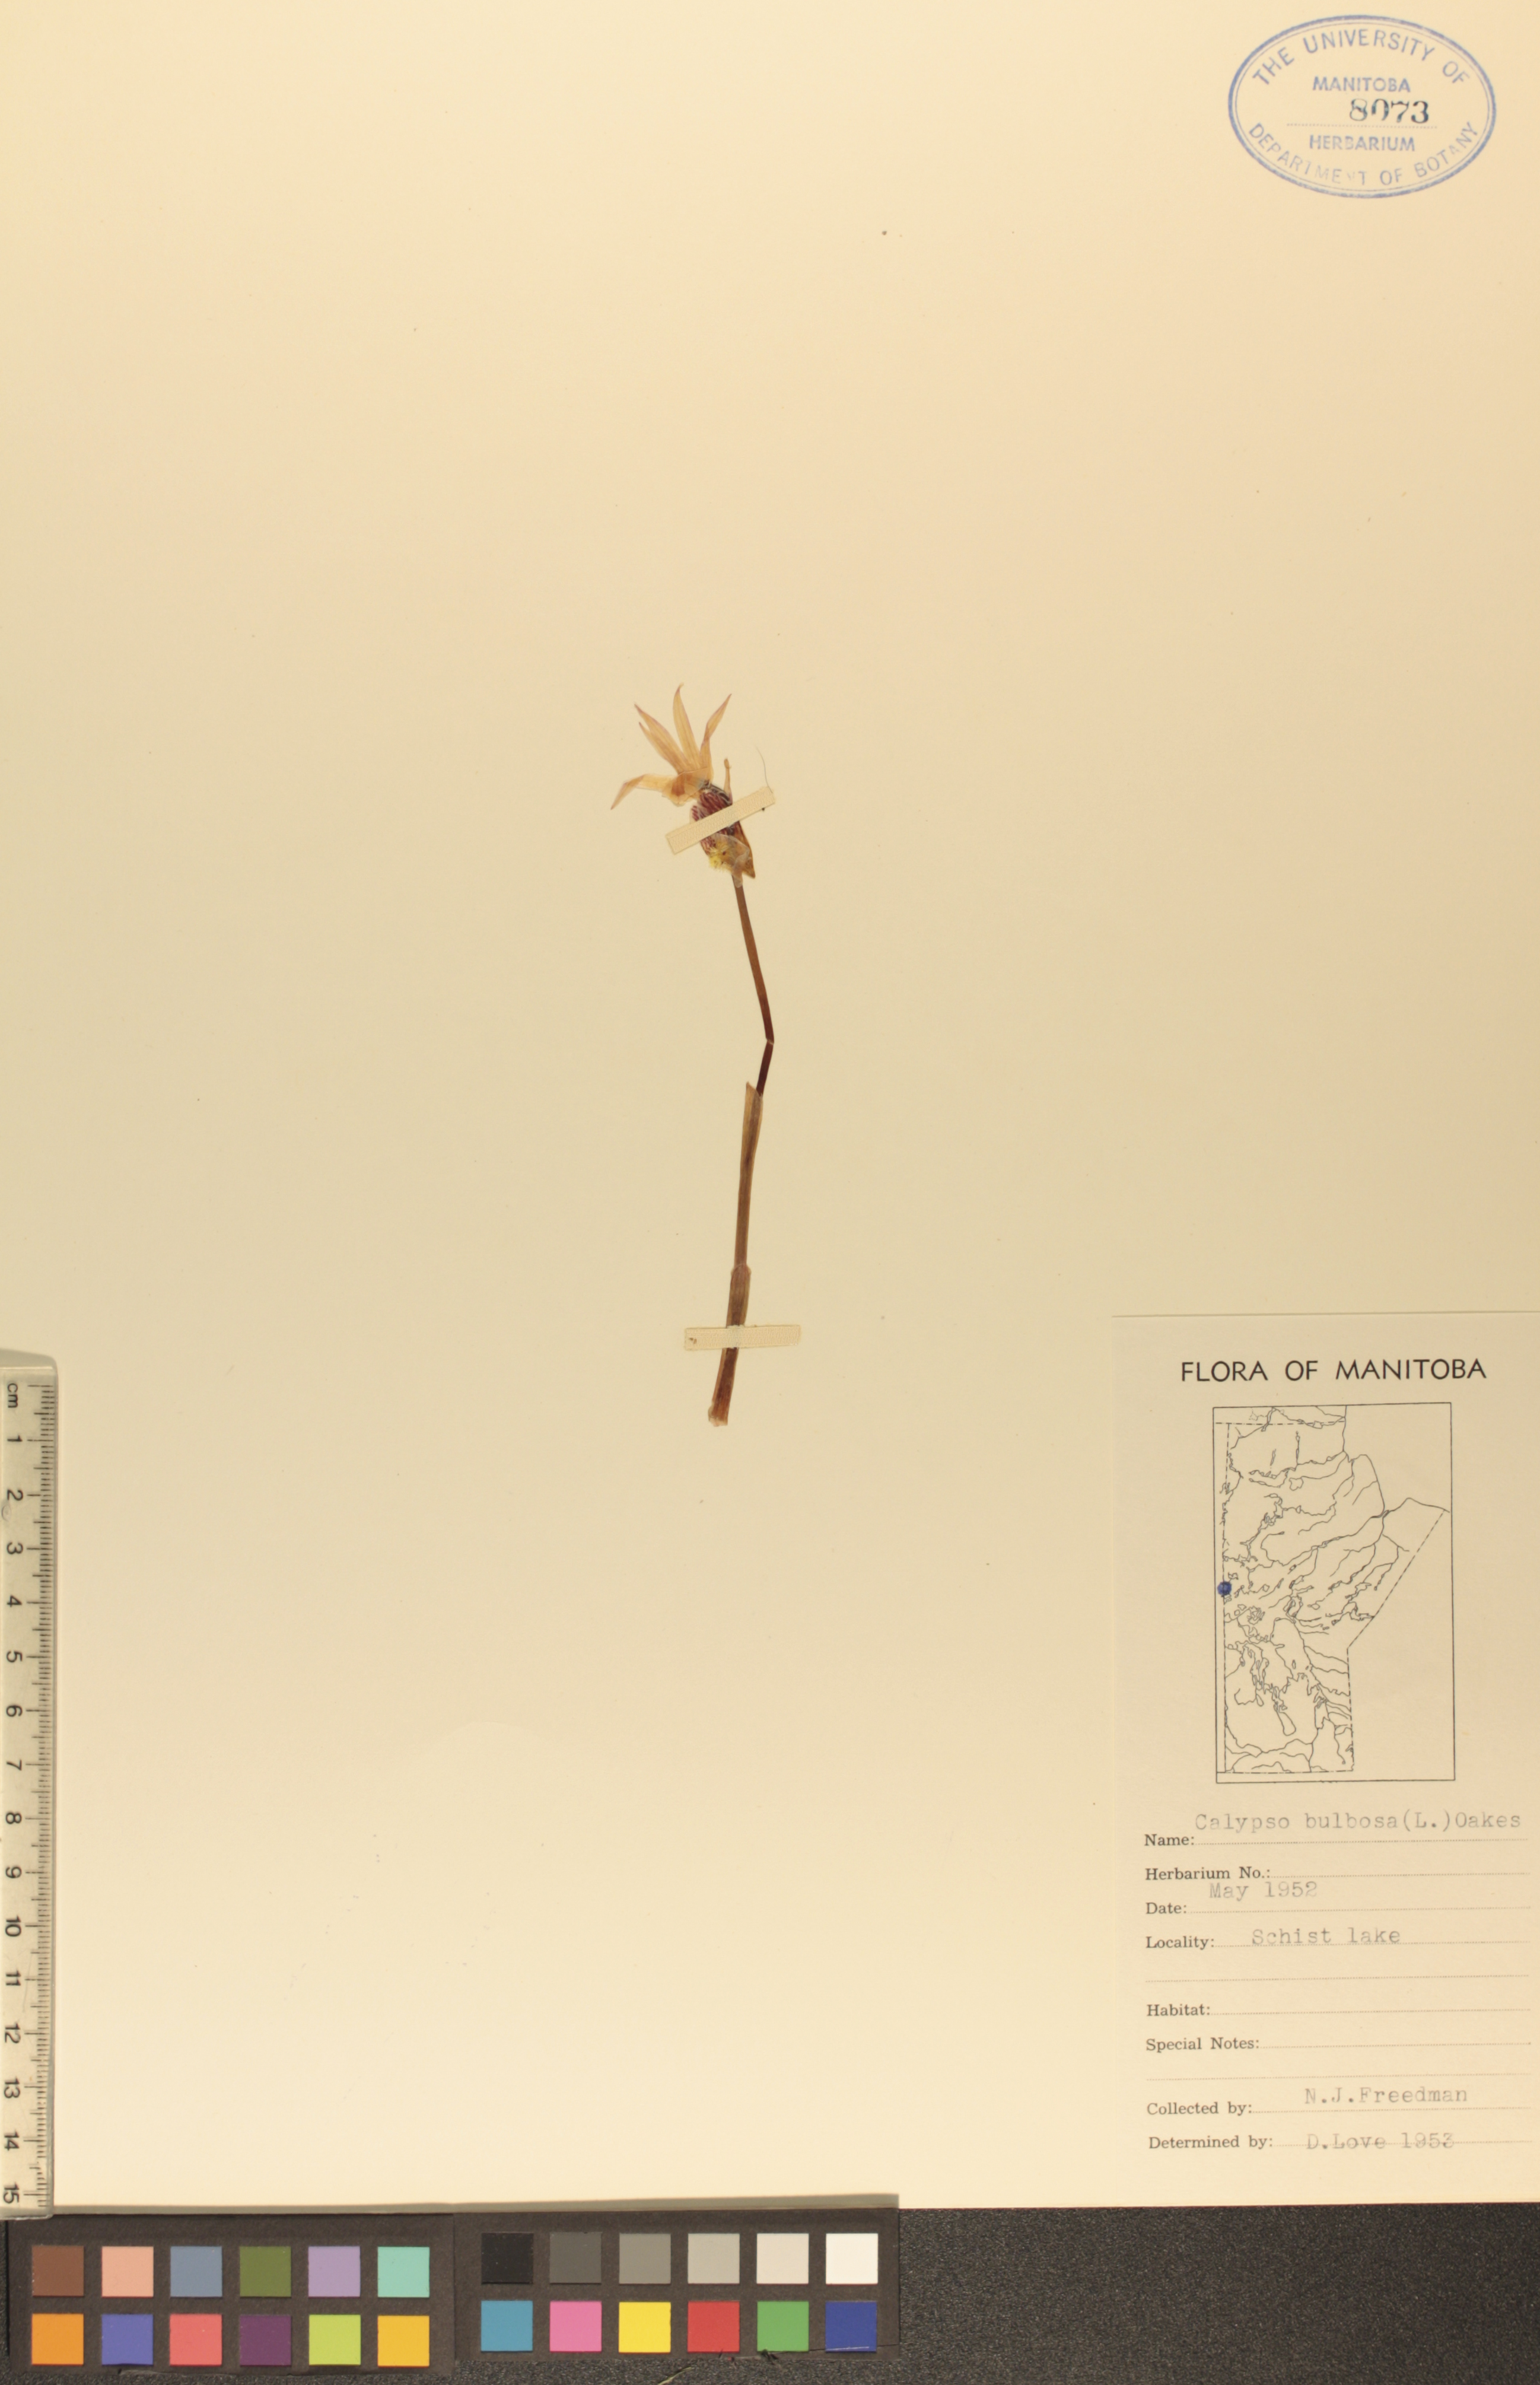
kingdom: Plantae
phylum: Tracheophyta
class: Liliopsida
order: Asparagales
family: Orchidaceae
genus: Calypso
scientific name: Calypso bulbosa
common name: Calypso
